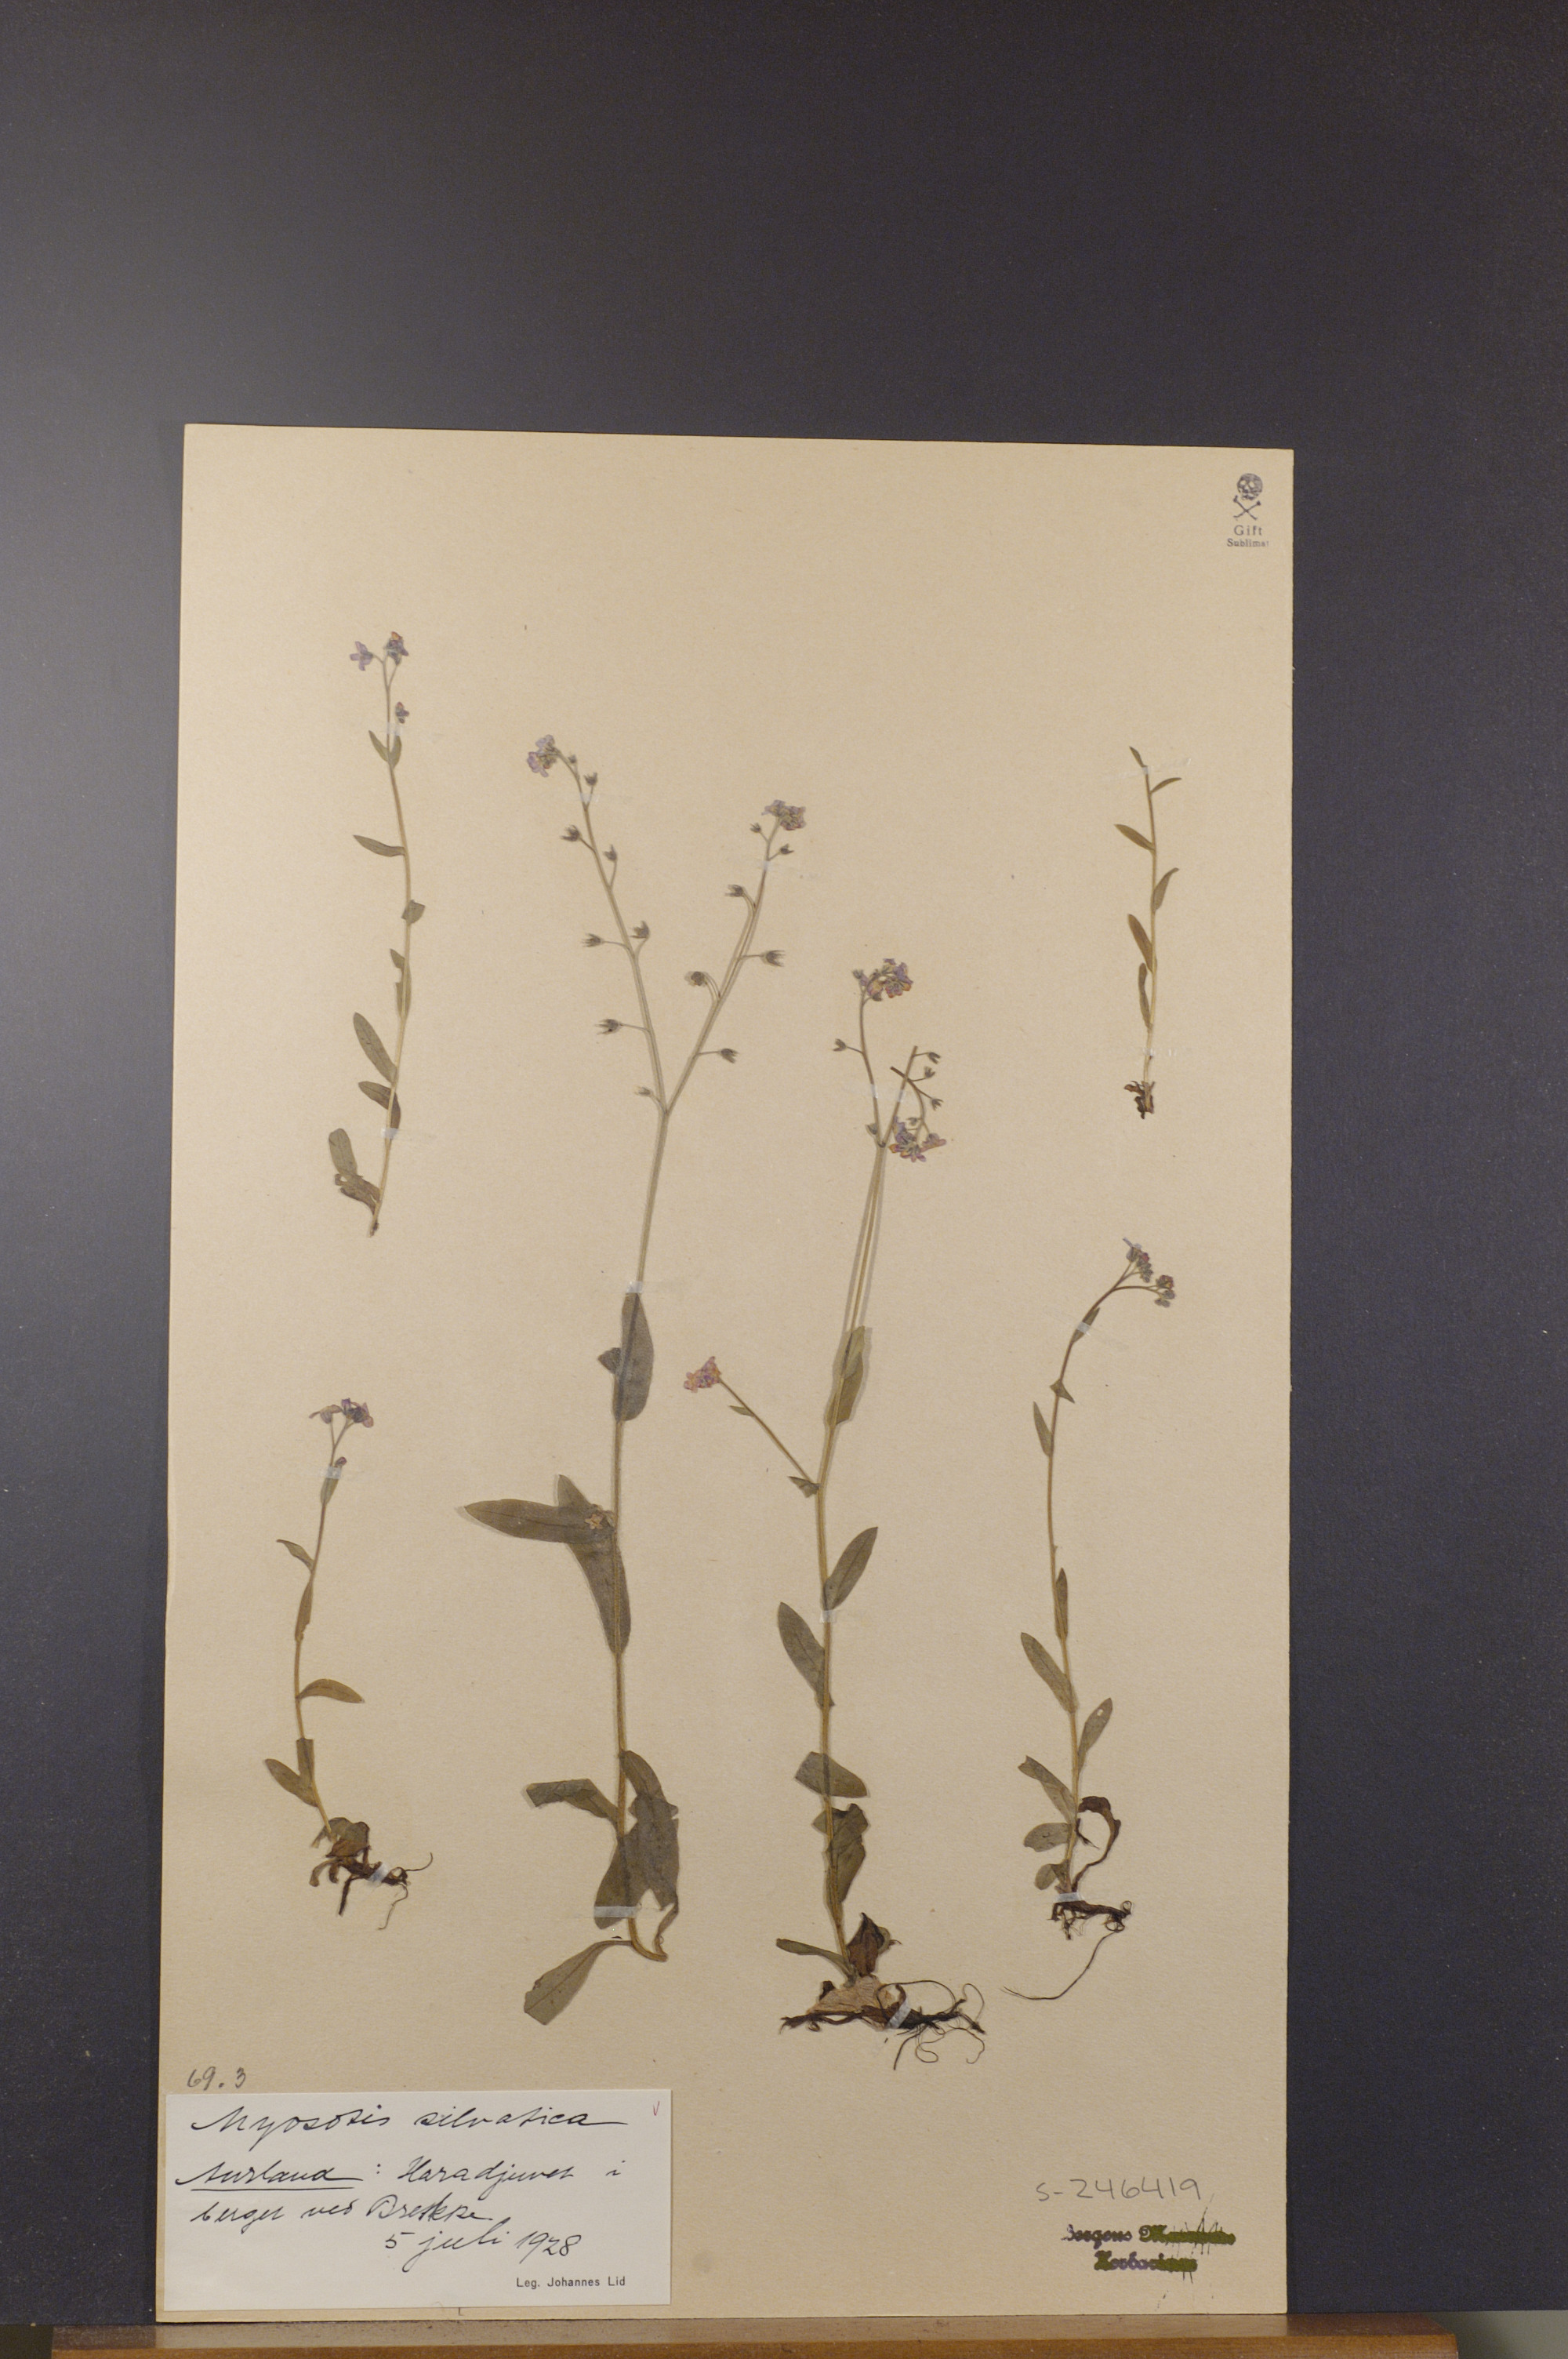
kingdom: Plantae
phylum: Tracheophyta
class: Magnoliopsida
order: Boraginales
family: Boraginaceae
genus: Myosotis
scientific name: Myosotis decumbens
